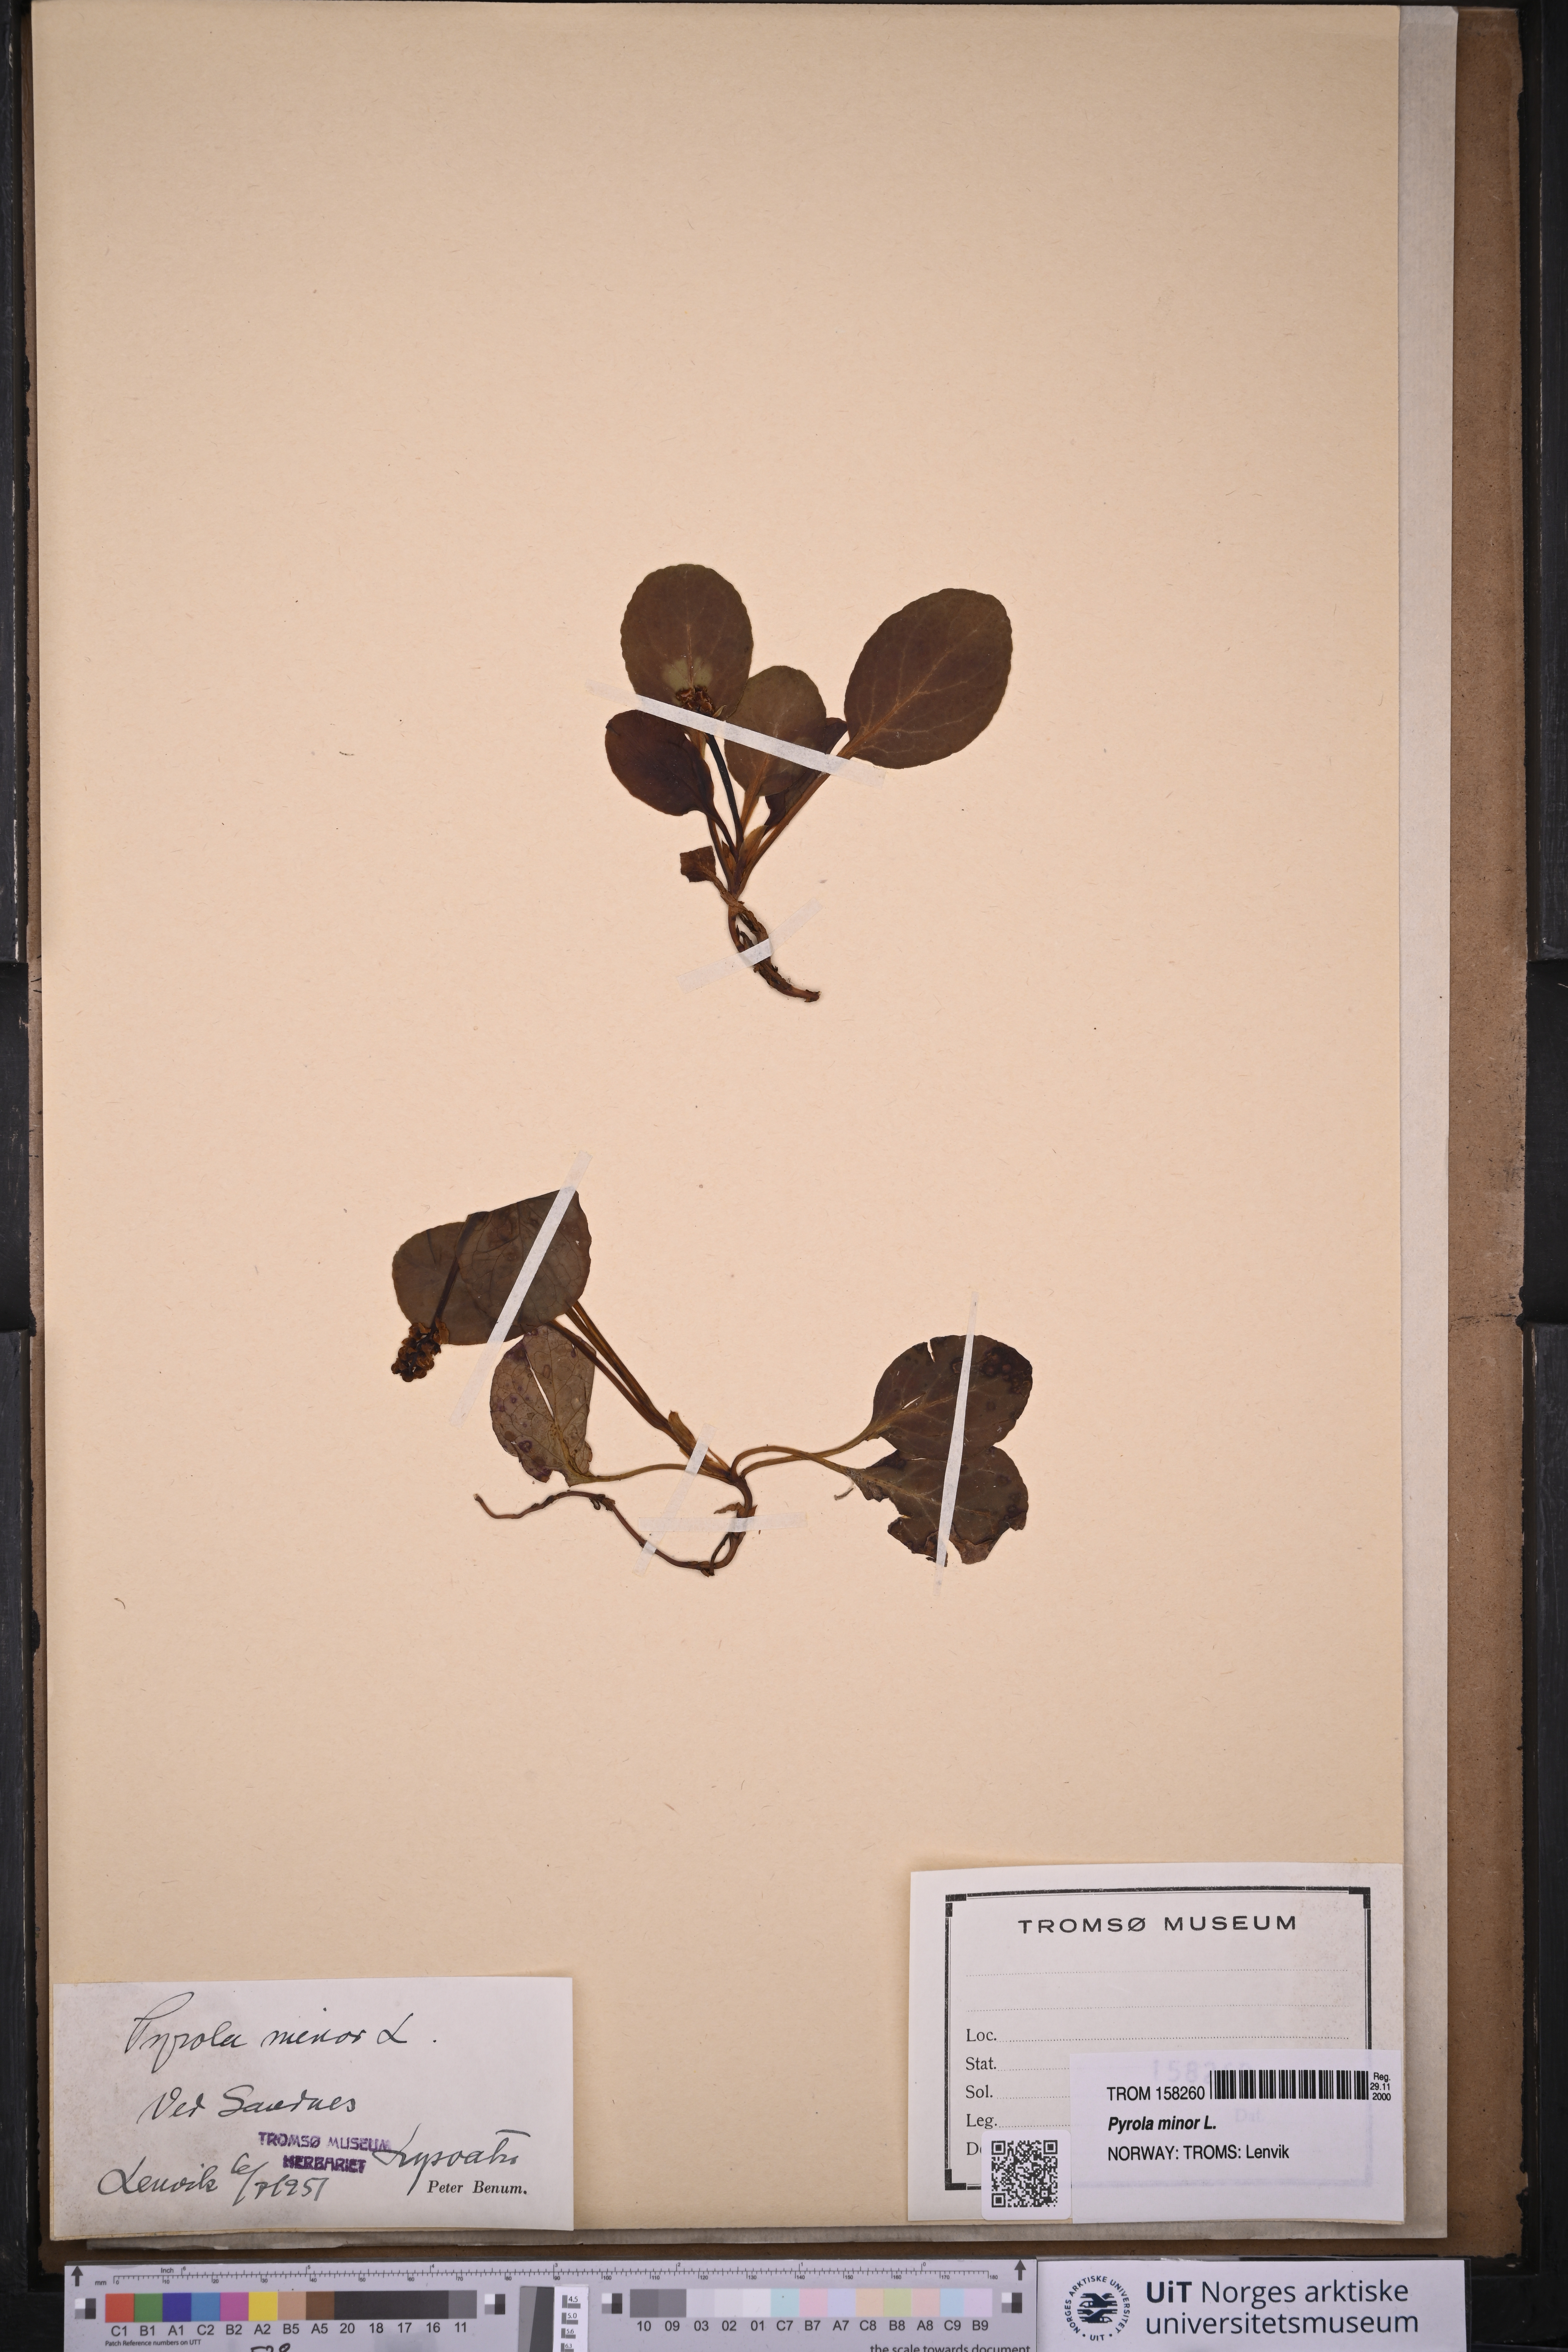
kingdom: Plantae
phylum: Tracheophyta
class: Magnoliopsida
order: Ericales
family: Ericaceae
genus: Pyrola
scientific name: Pyrola minor
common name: Common wintergreen
